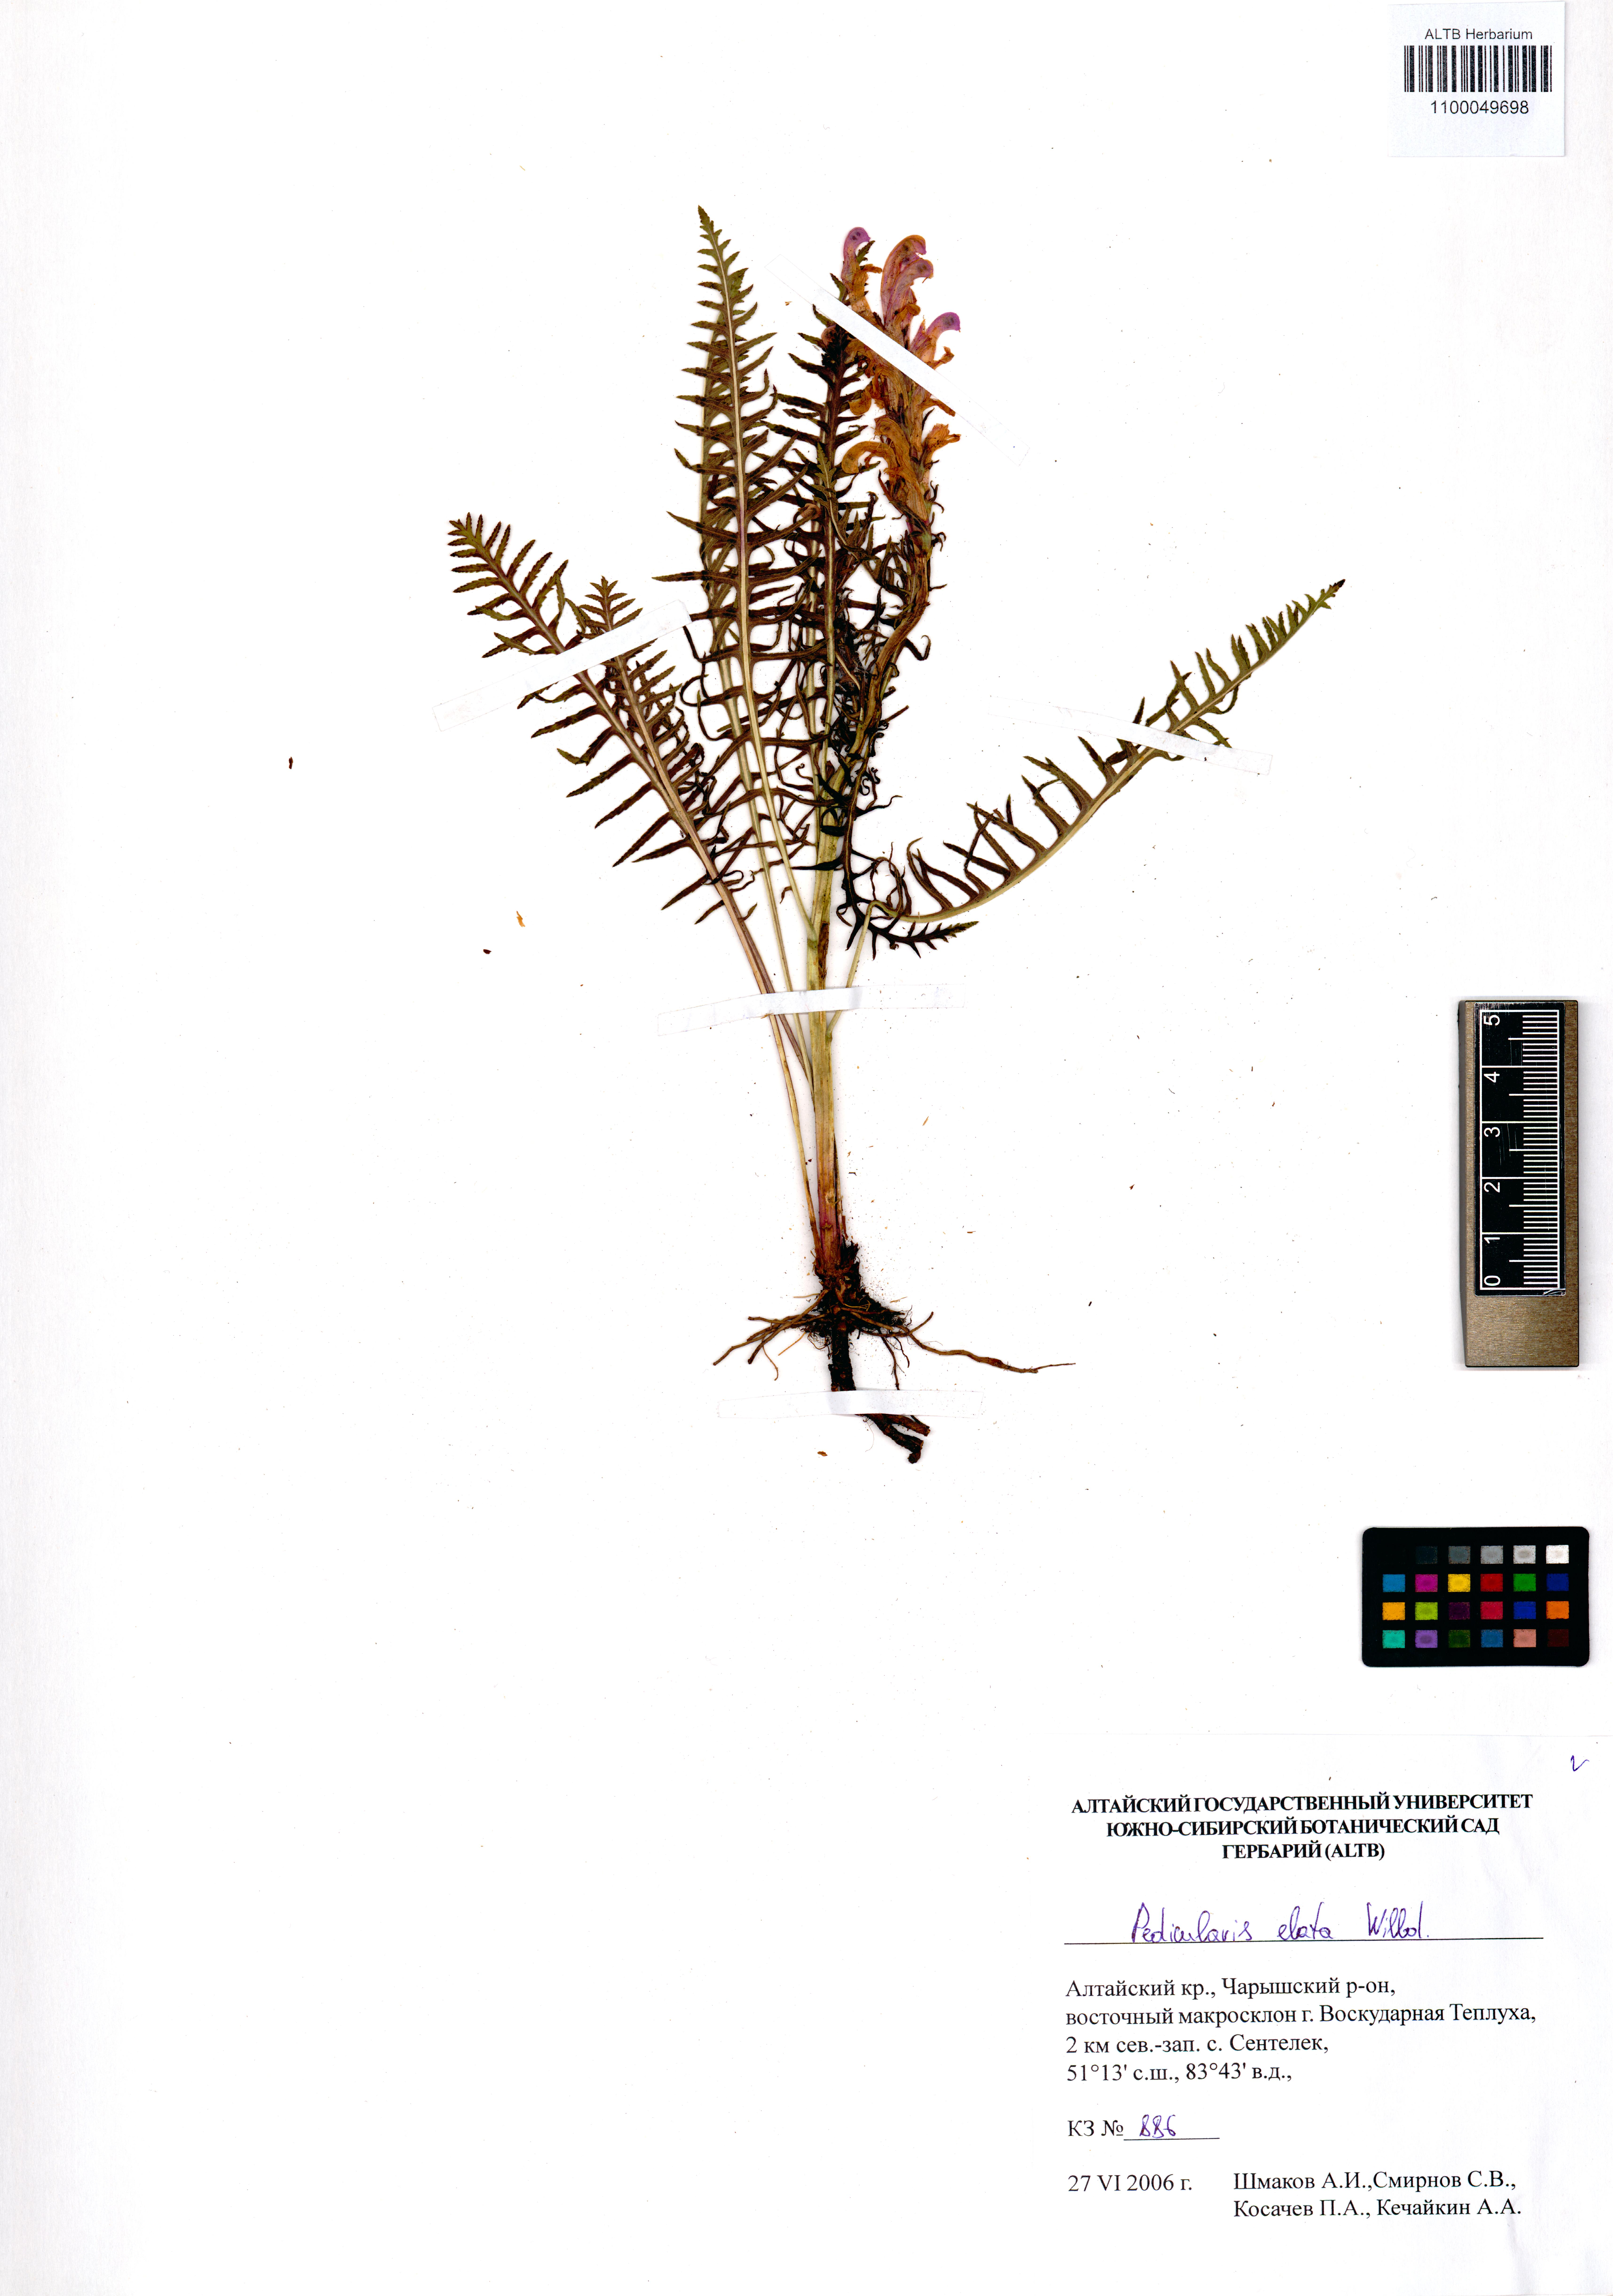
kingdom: Plantae
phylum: Tracheophyta
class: Magnoliopsida
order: Lamiales
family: Orobanchaceae
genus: Pedicularis
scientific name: Pedicularis elata
